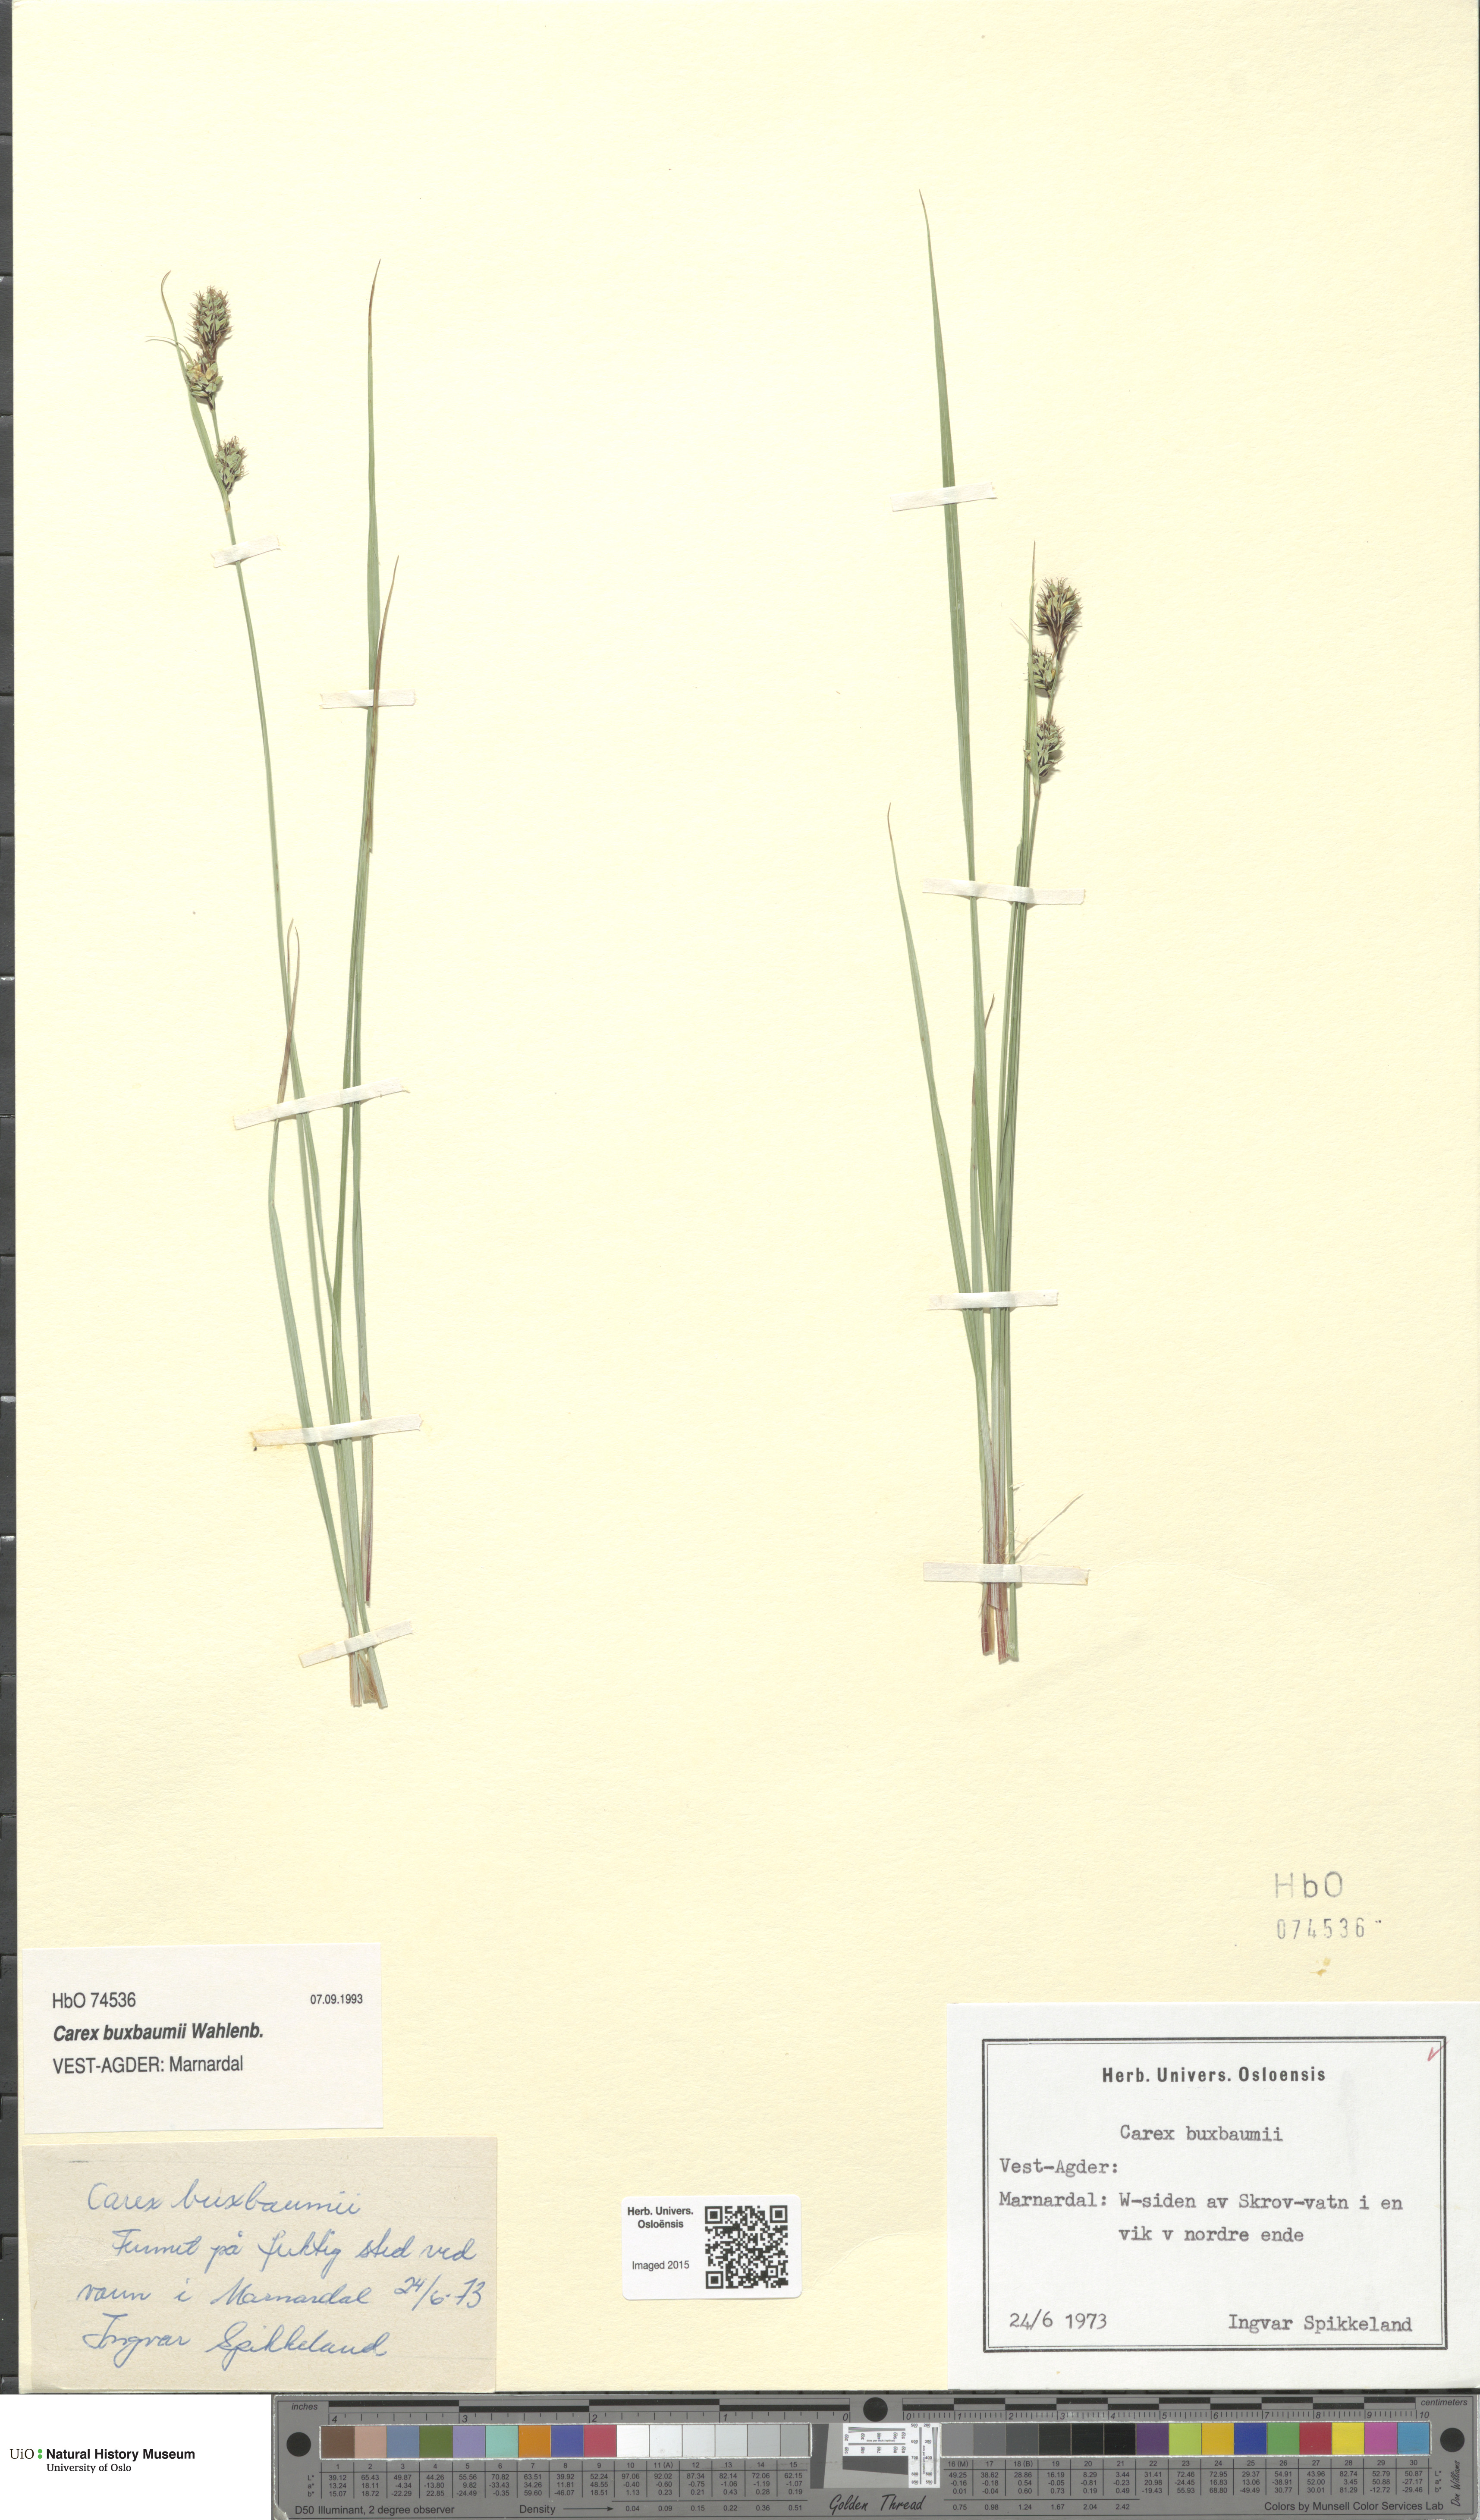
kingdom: Plantae
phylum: Tracheophyta
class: Liliopsida
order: Poales
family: Cyperaceae
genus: Carex
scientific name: Carex buxbaumii
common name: Club sedge
